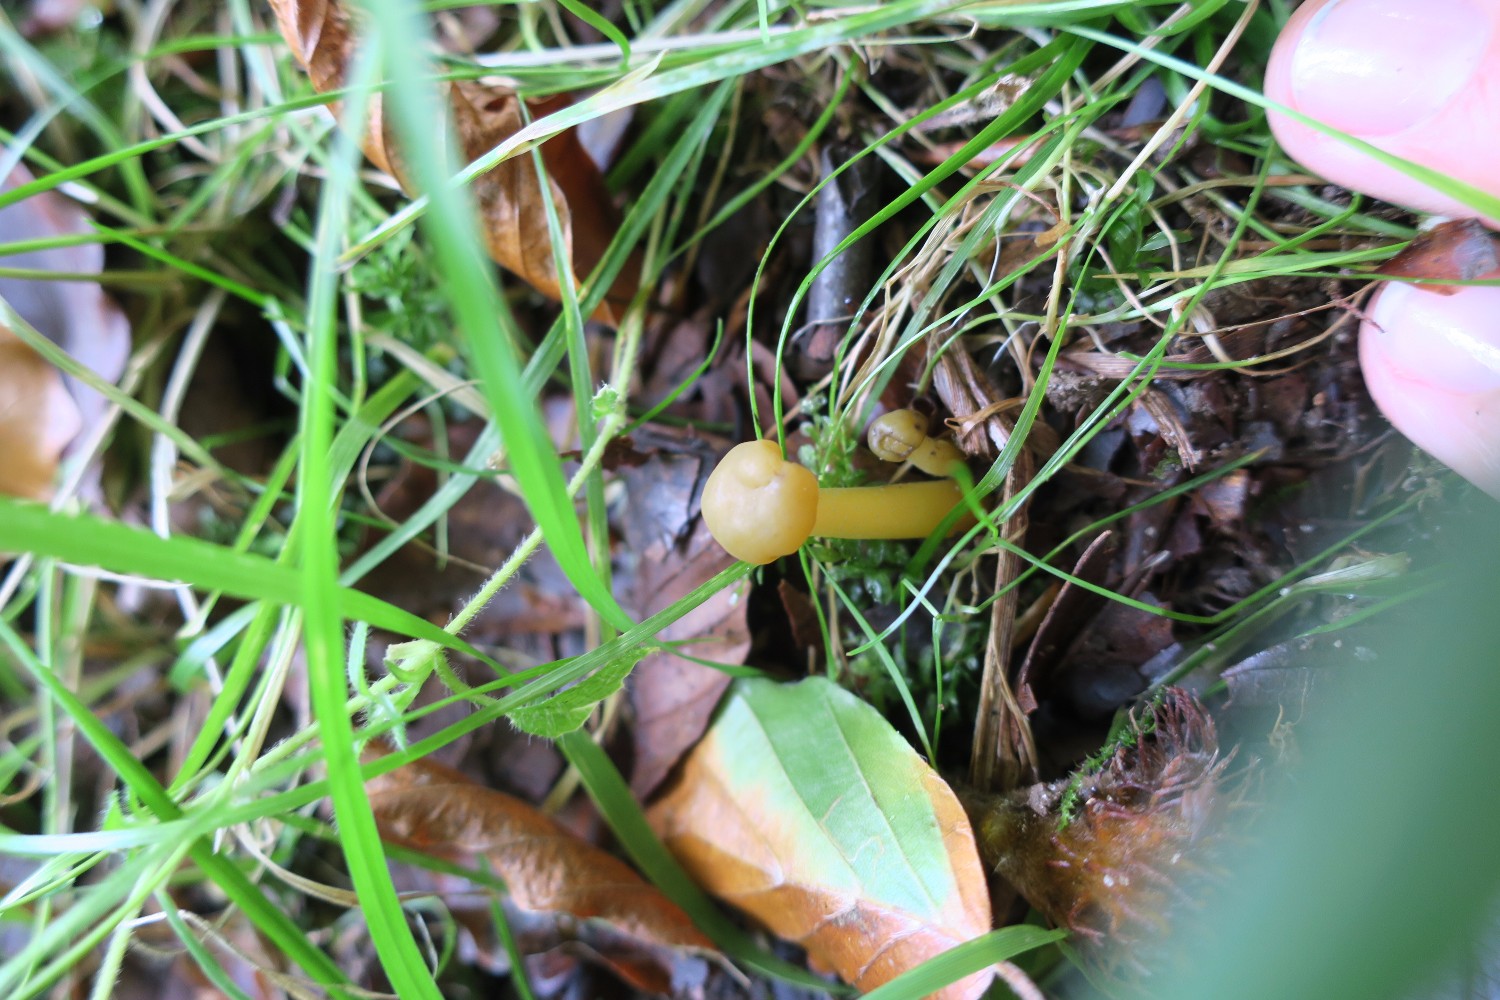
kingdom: Fungi
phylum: Ascomycota
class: Leotiomycetes
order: Leotiales
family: Leotiaceae
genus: Leotia
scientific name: Leotia lubrica
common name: ravsvamp
